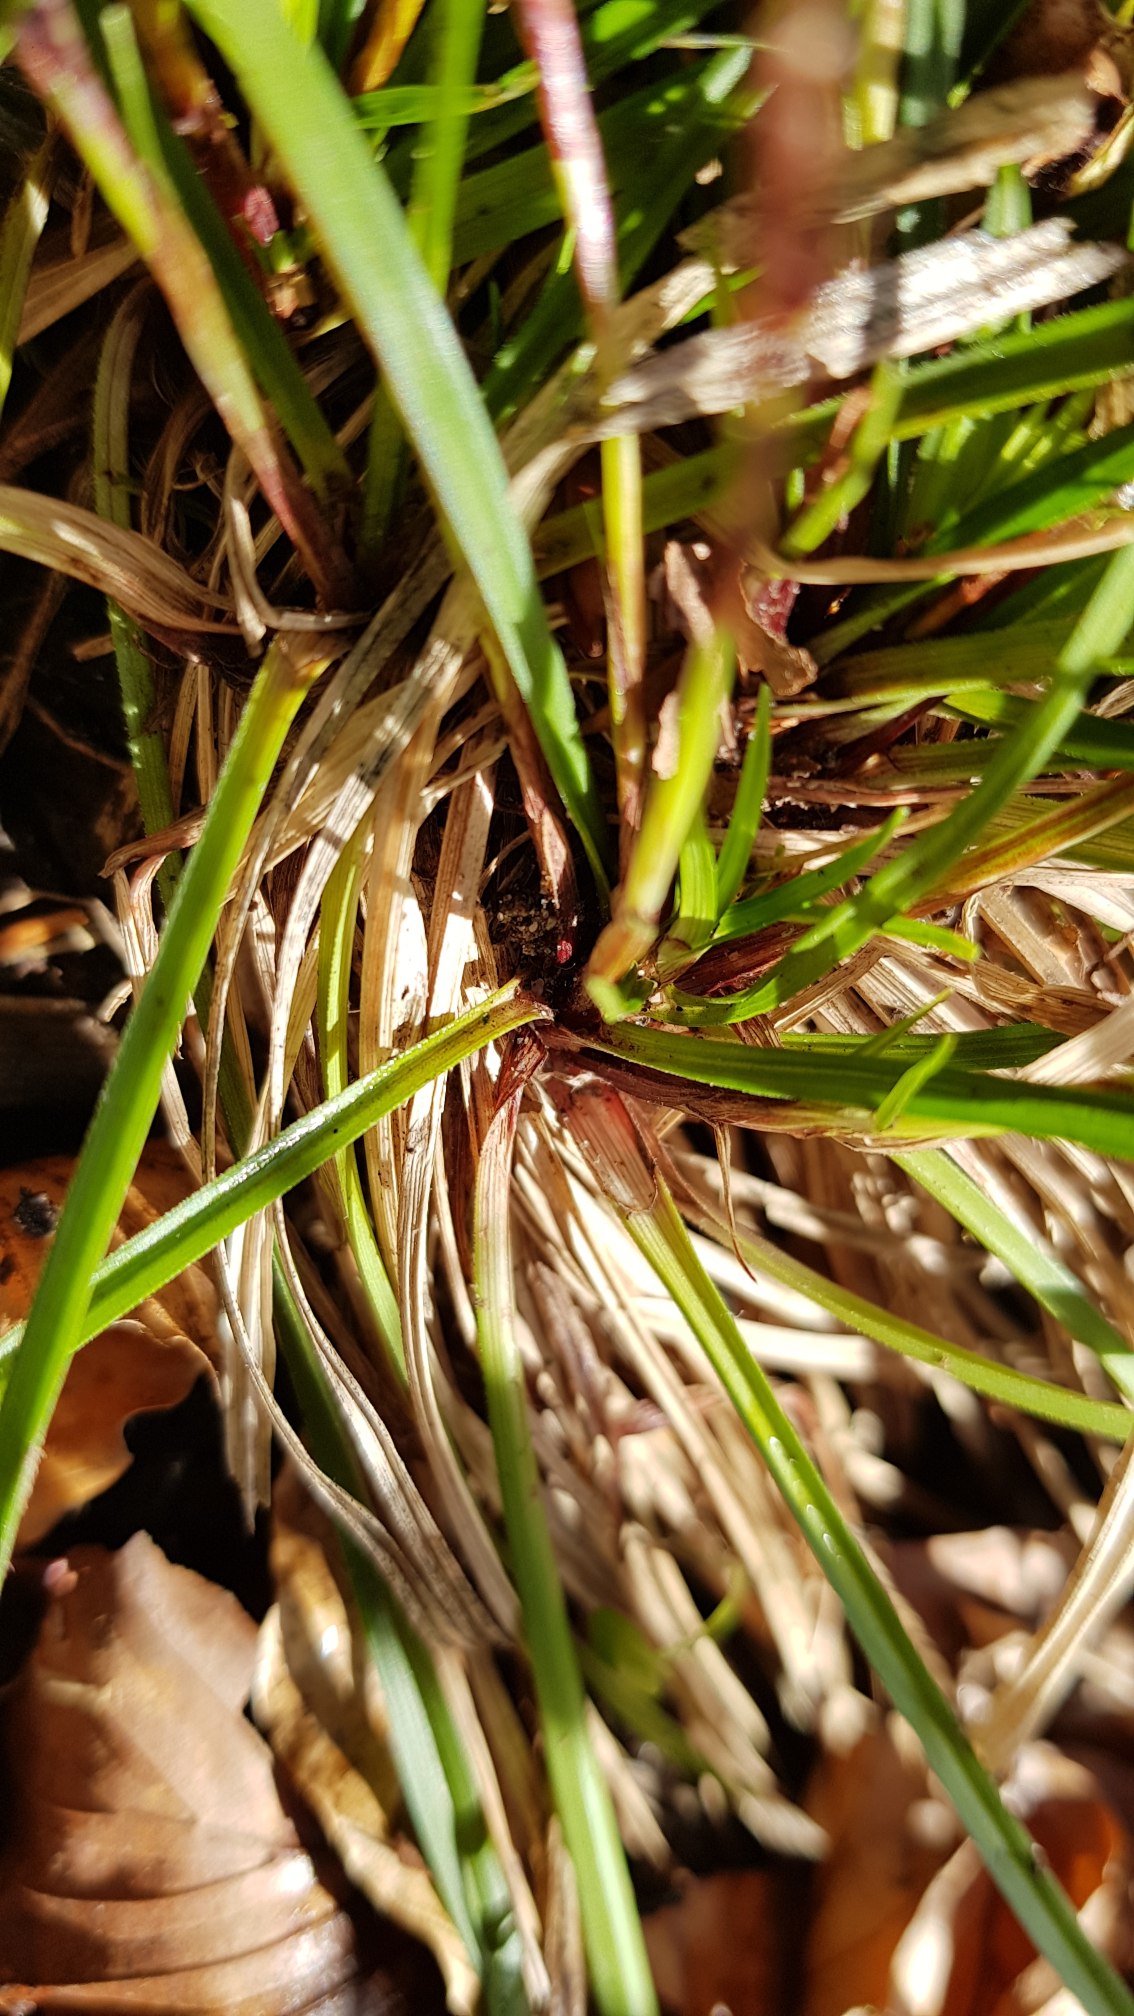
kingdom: Plantae
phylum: Tracheophyta
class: Liliopsida
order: Poales
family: Cyperaceae
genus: Carex
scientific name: Carex digitata
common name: Finger-star
